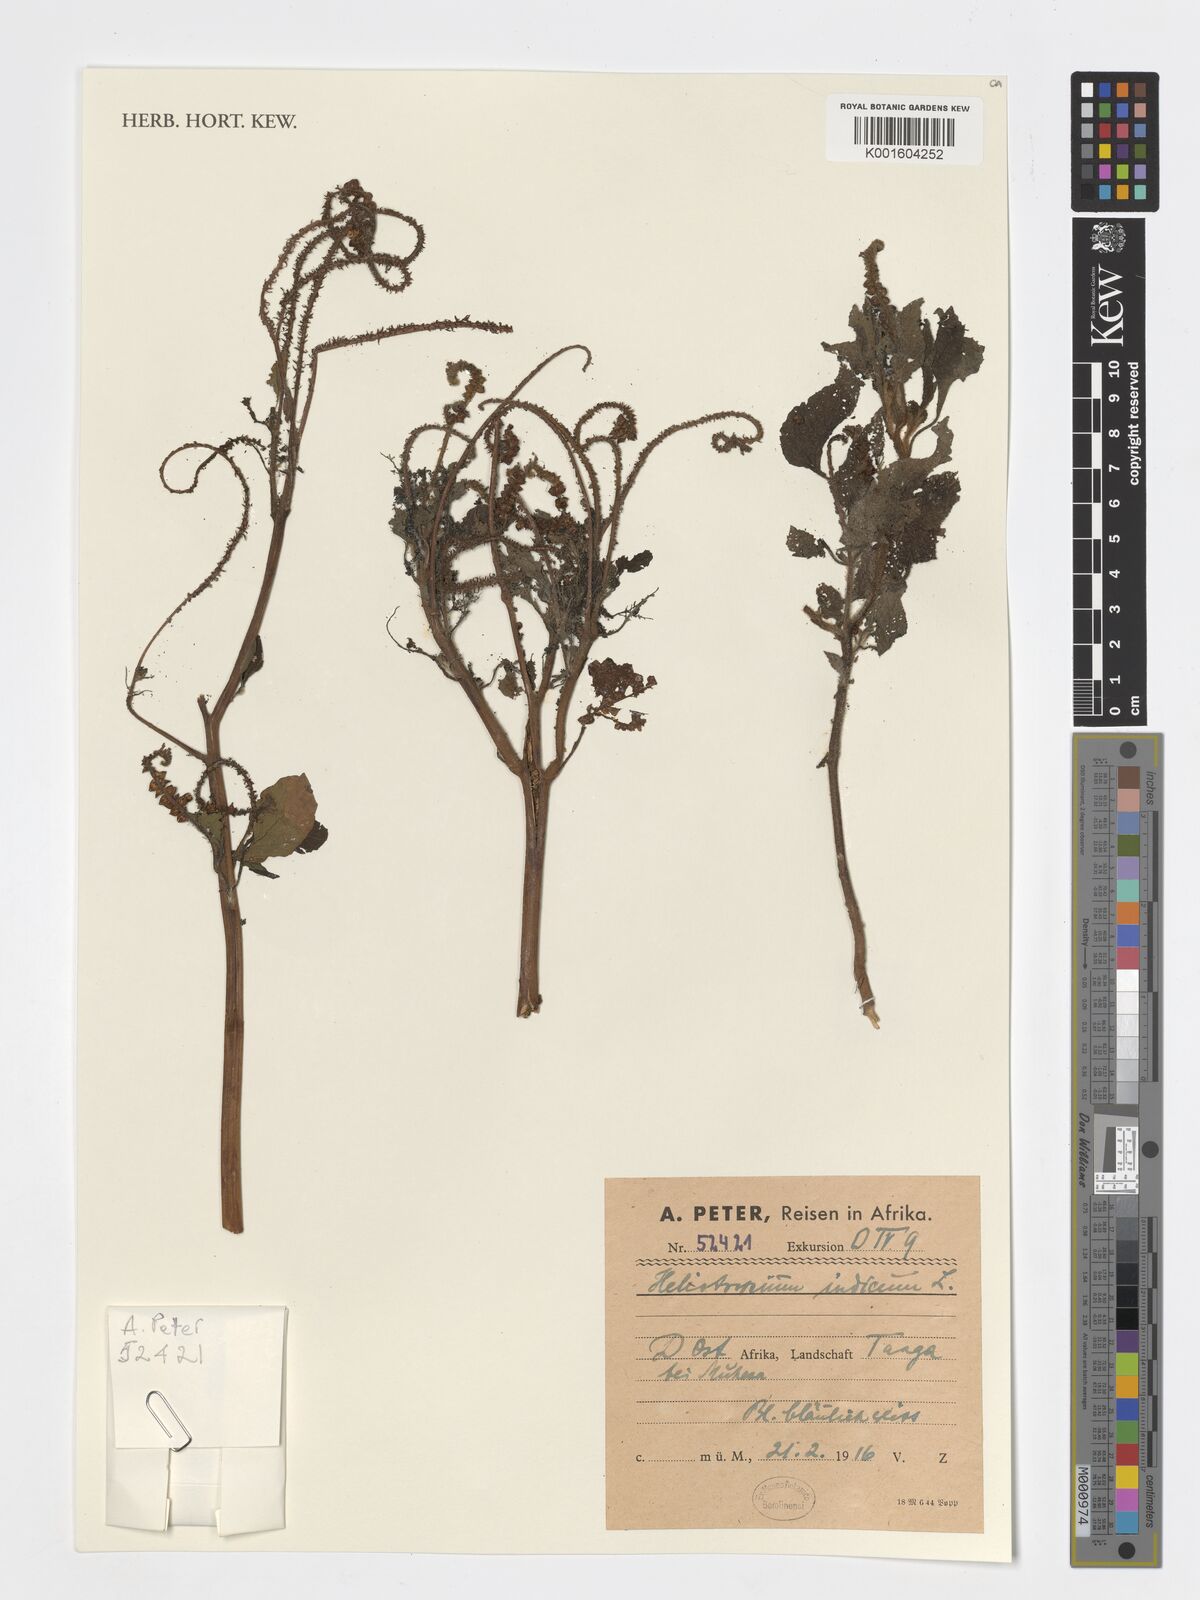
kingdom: Plantae
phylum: Tracheophyta
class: Magnoliopsida
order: Boraginales
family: Heliotropiaceae
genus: Heliotropium
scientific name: Heliotropium indicum
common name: Indian heliotrope
